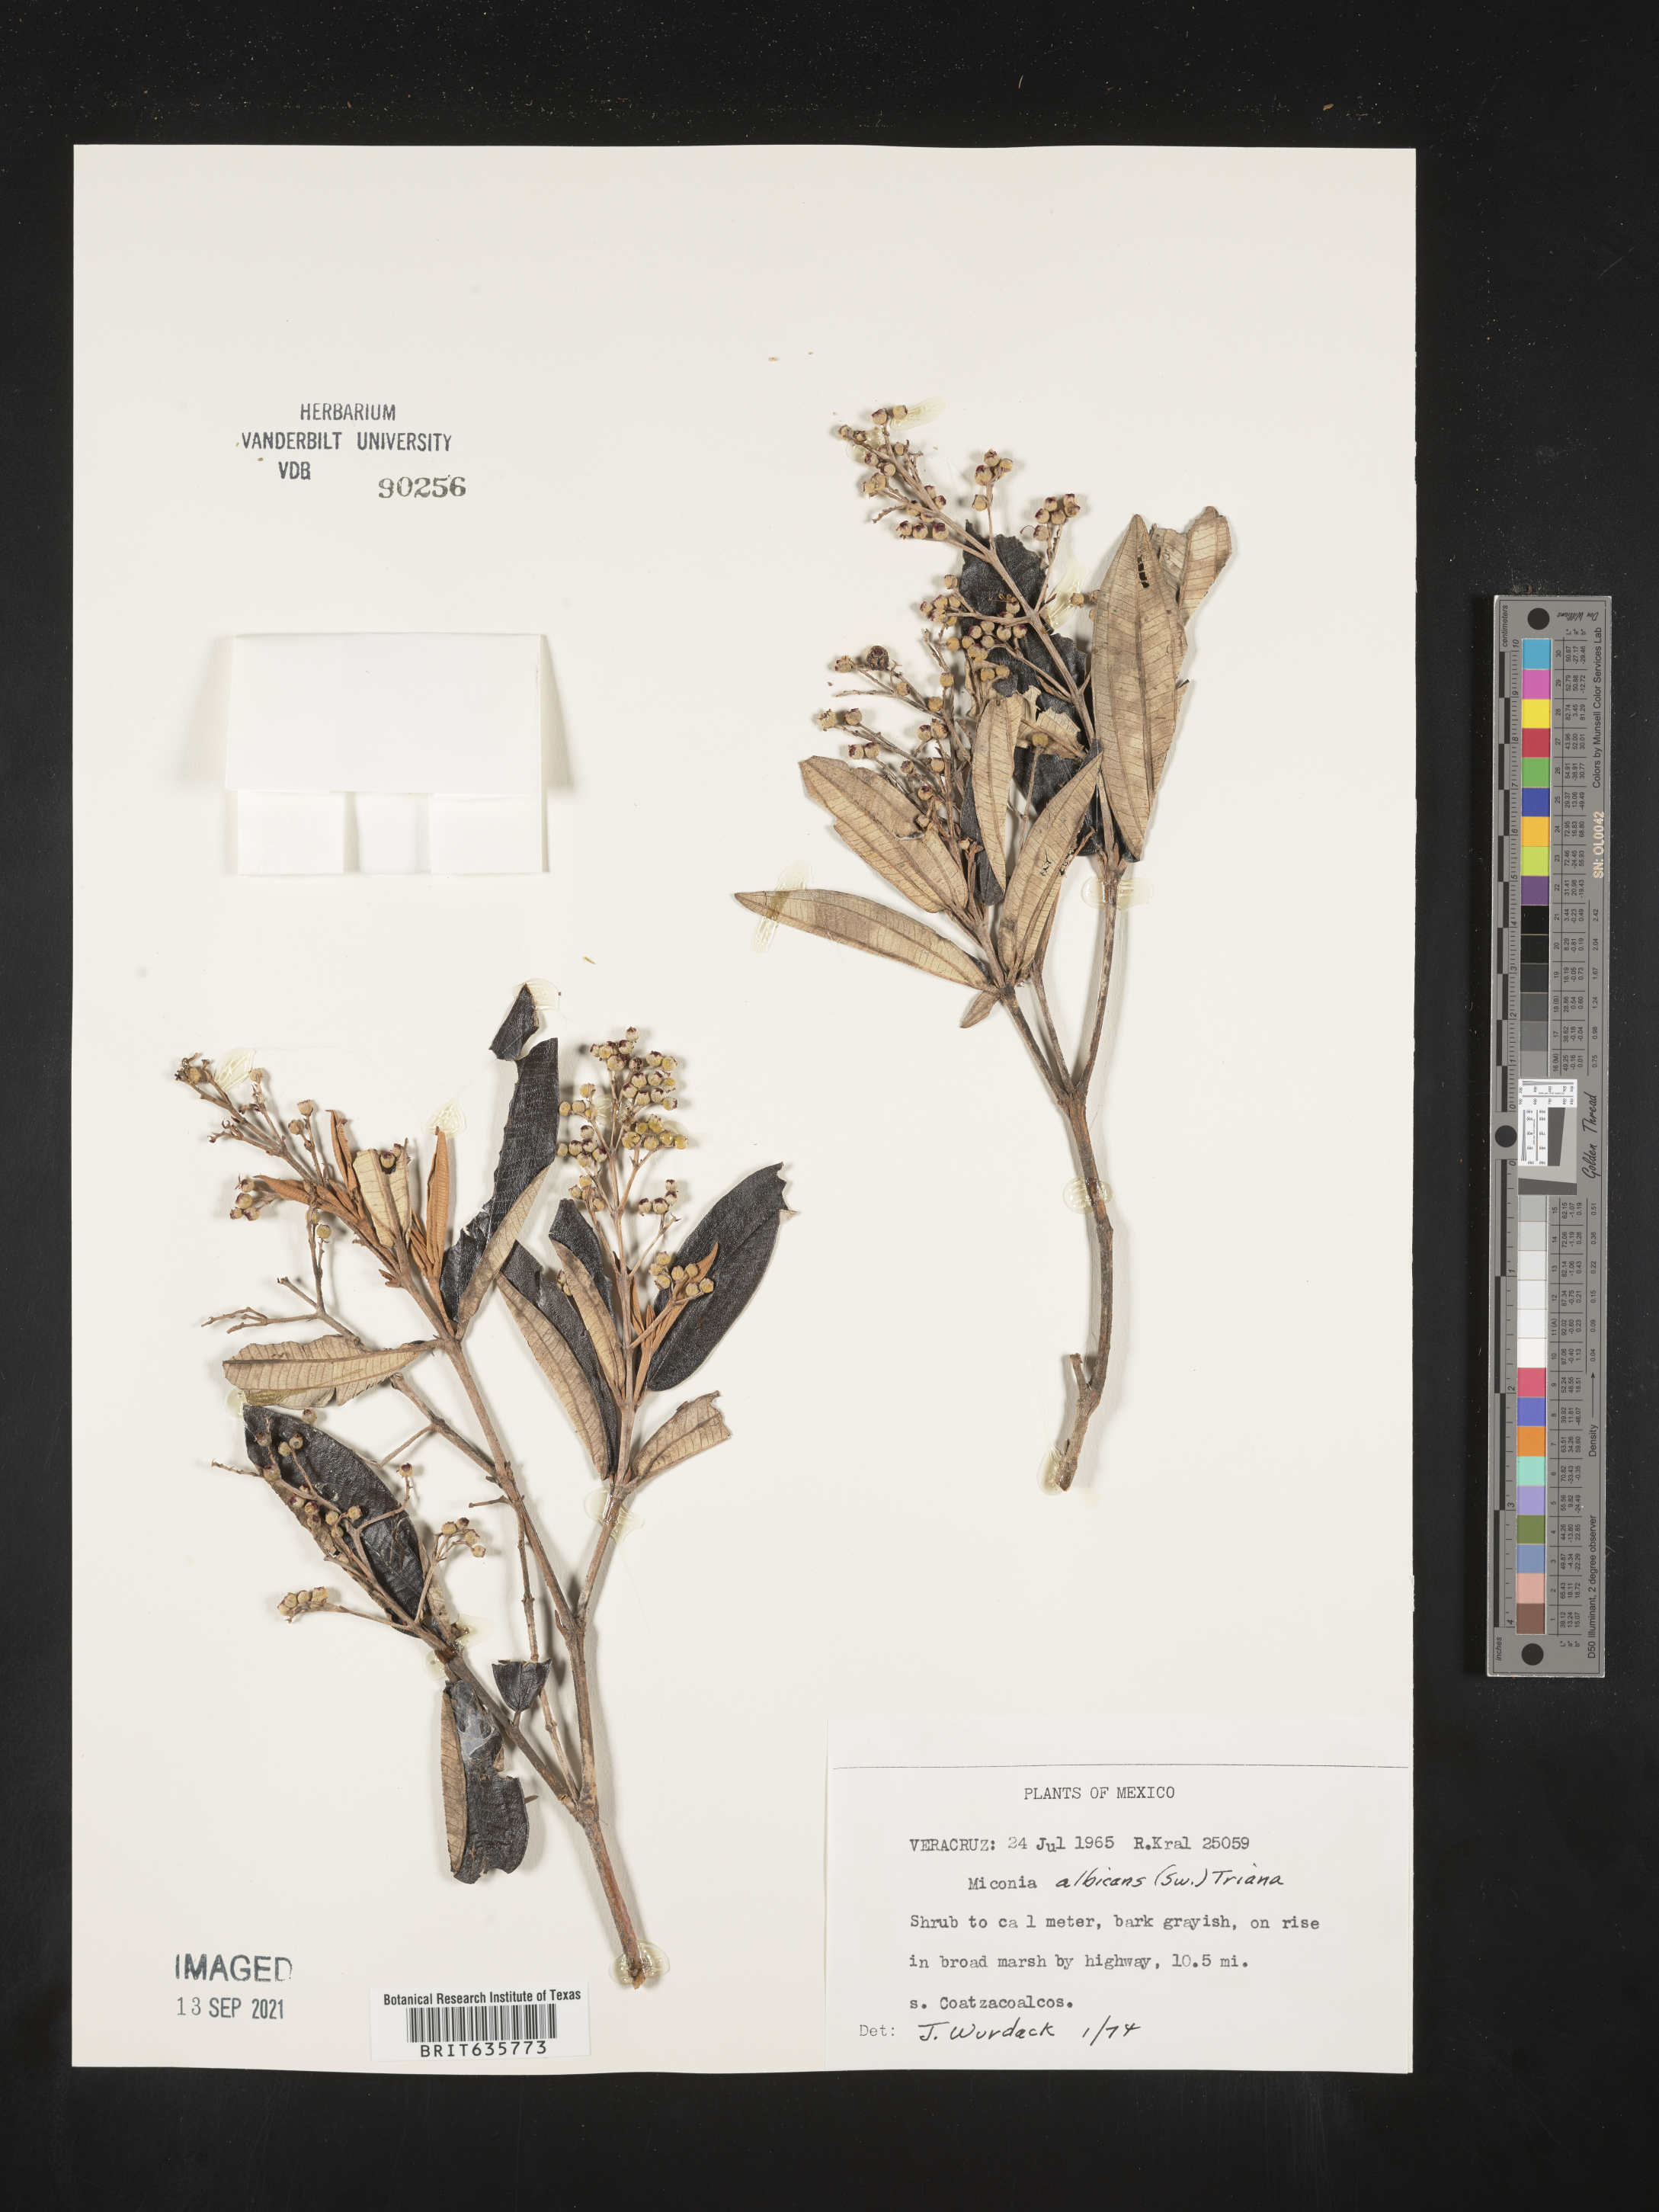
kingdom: Plantae
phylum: Tracheophyta
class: Magnoliopsida
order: Myrtales
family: Melastomataceae
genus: Miconia
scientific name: Miconia
